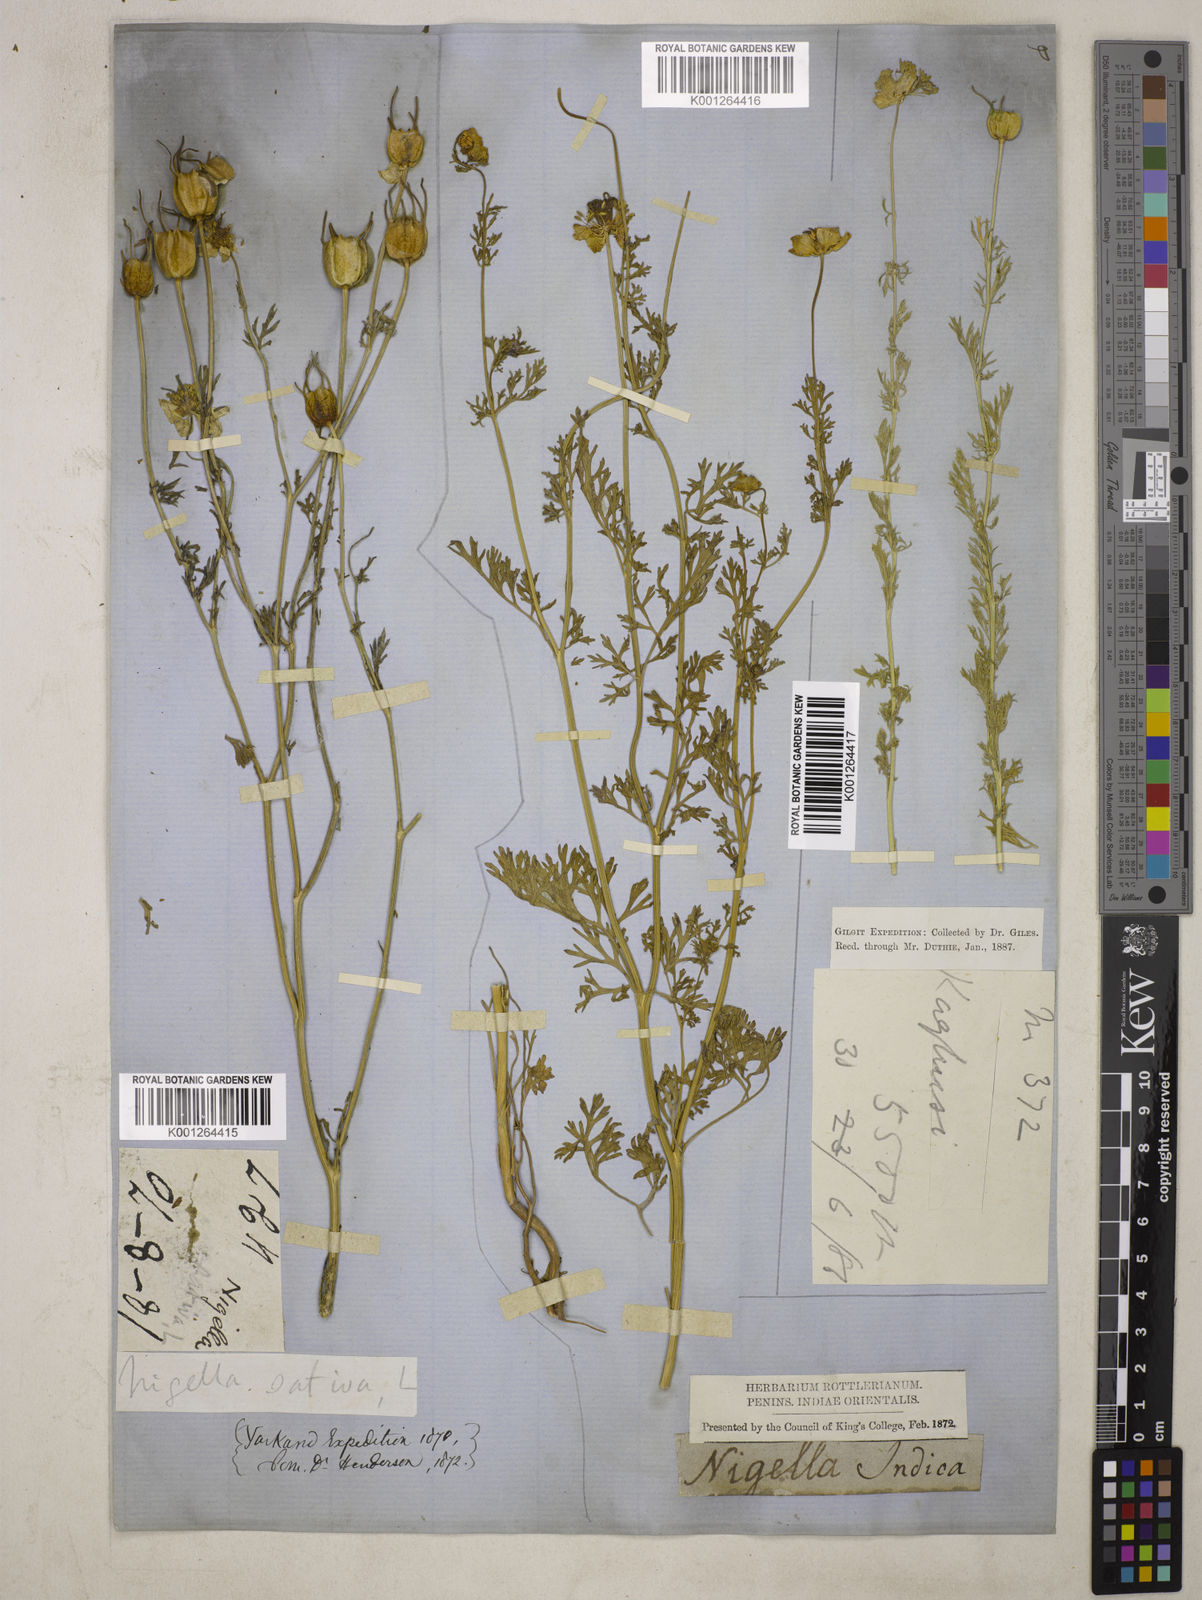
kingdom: Plantae
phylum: Tracheophyta
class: Magnoliopsida
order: Ranunculales
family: Ranunculaceae
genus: Nigella
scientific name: Nigella sativa
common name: Black-cumin
